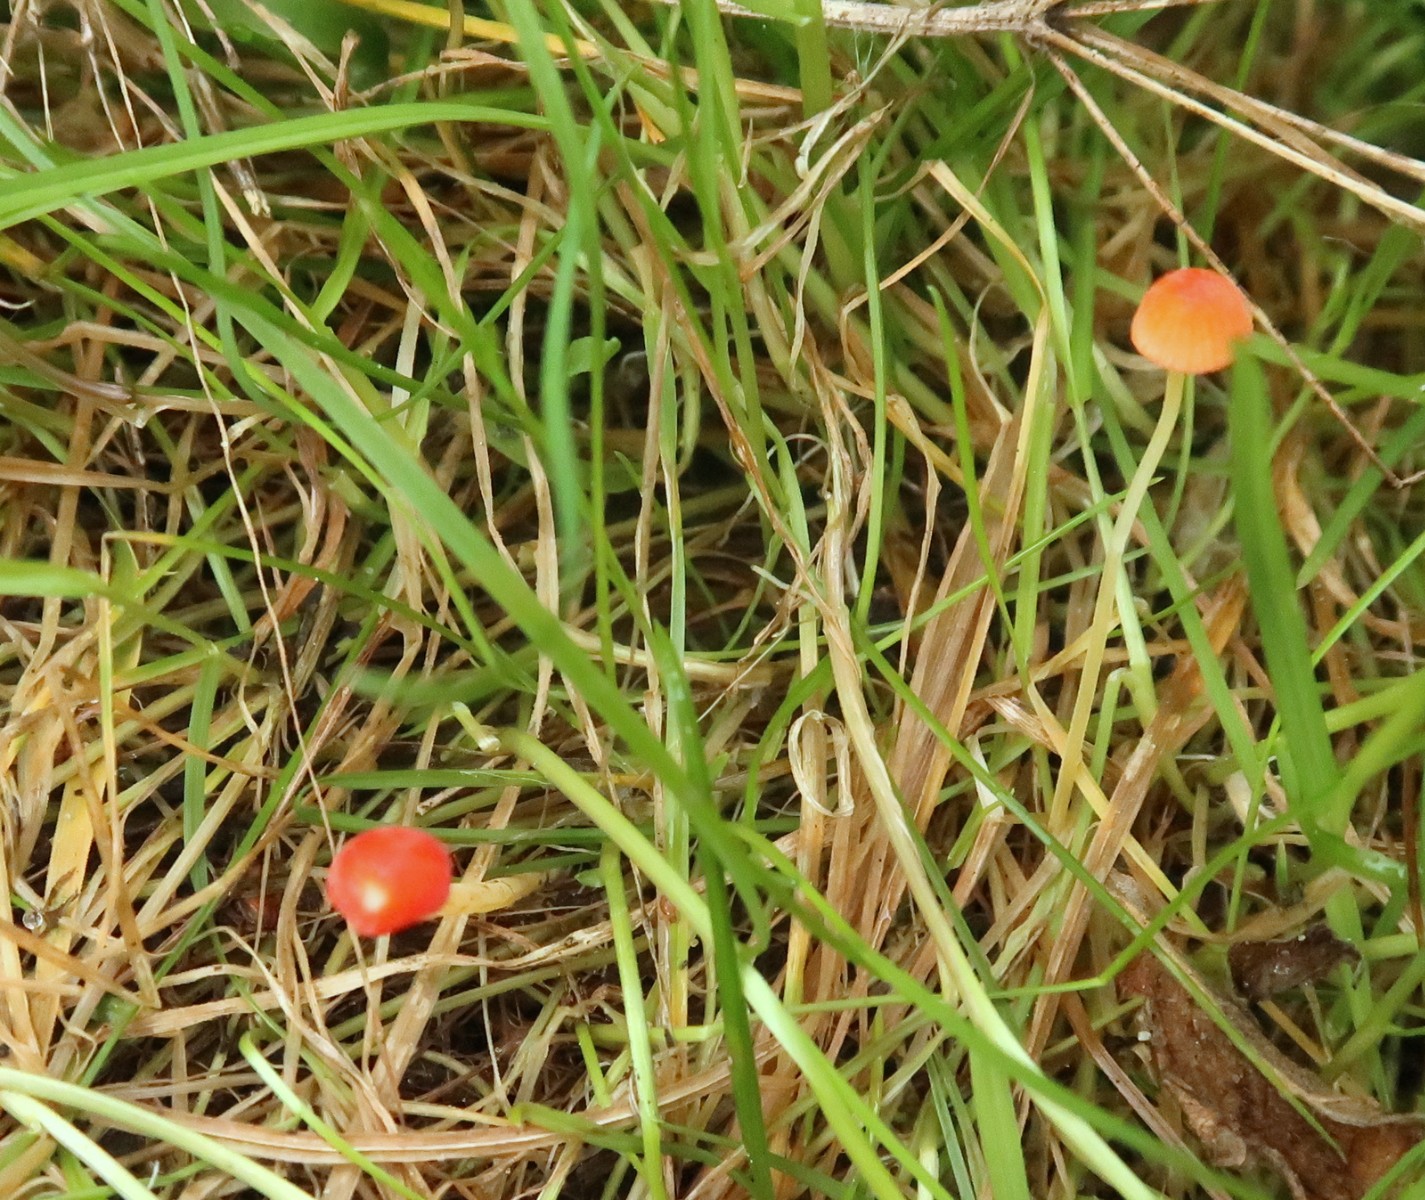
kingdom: Fungi
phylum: Basidiomycota
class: Agaricomycetes
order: Agaricales
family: Mycenaceae
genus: Mycena
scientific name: Mycena acicula
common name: orange huesvamp
